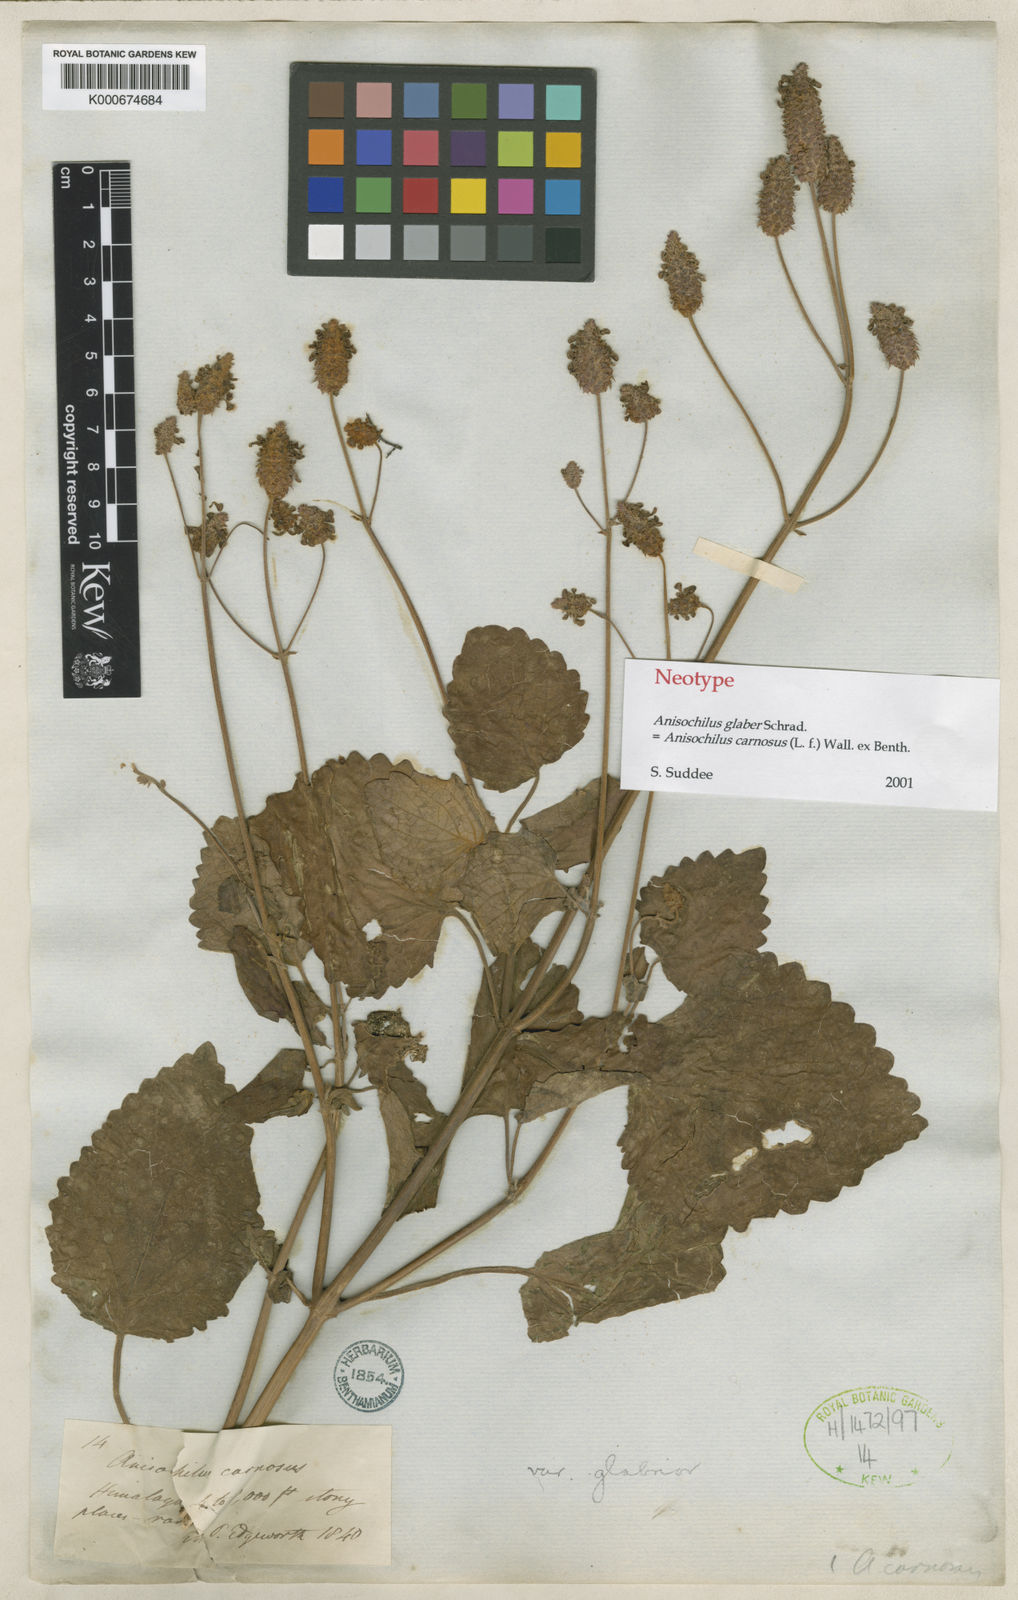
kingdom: Plantae
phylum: Tracheophyta
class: Magnoliopsida
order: Lamiales
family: Lamiaceae
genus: Anisochilus
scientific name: Anisochilus
